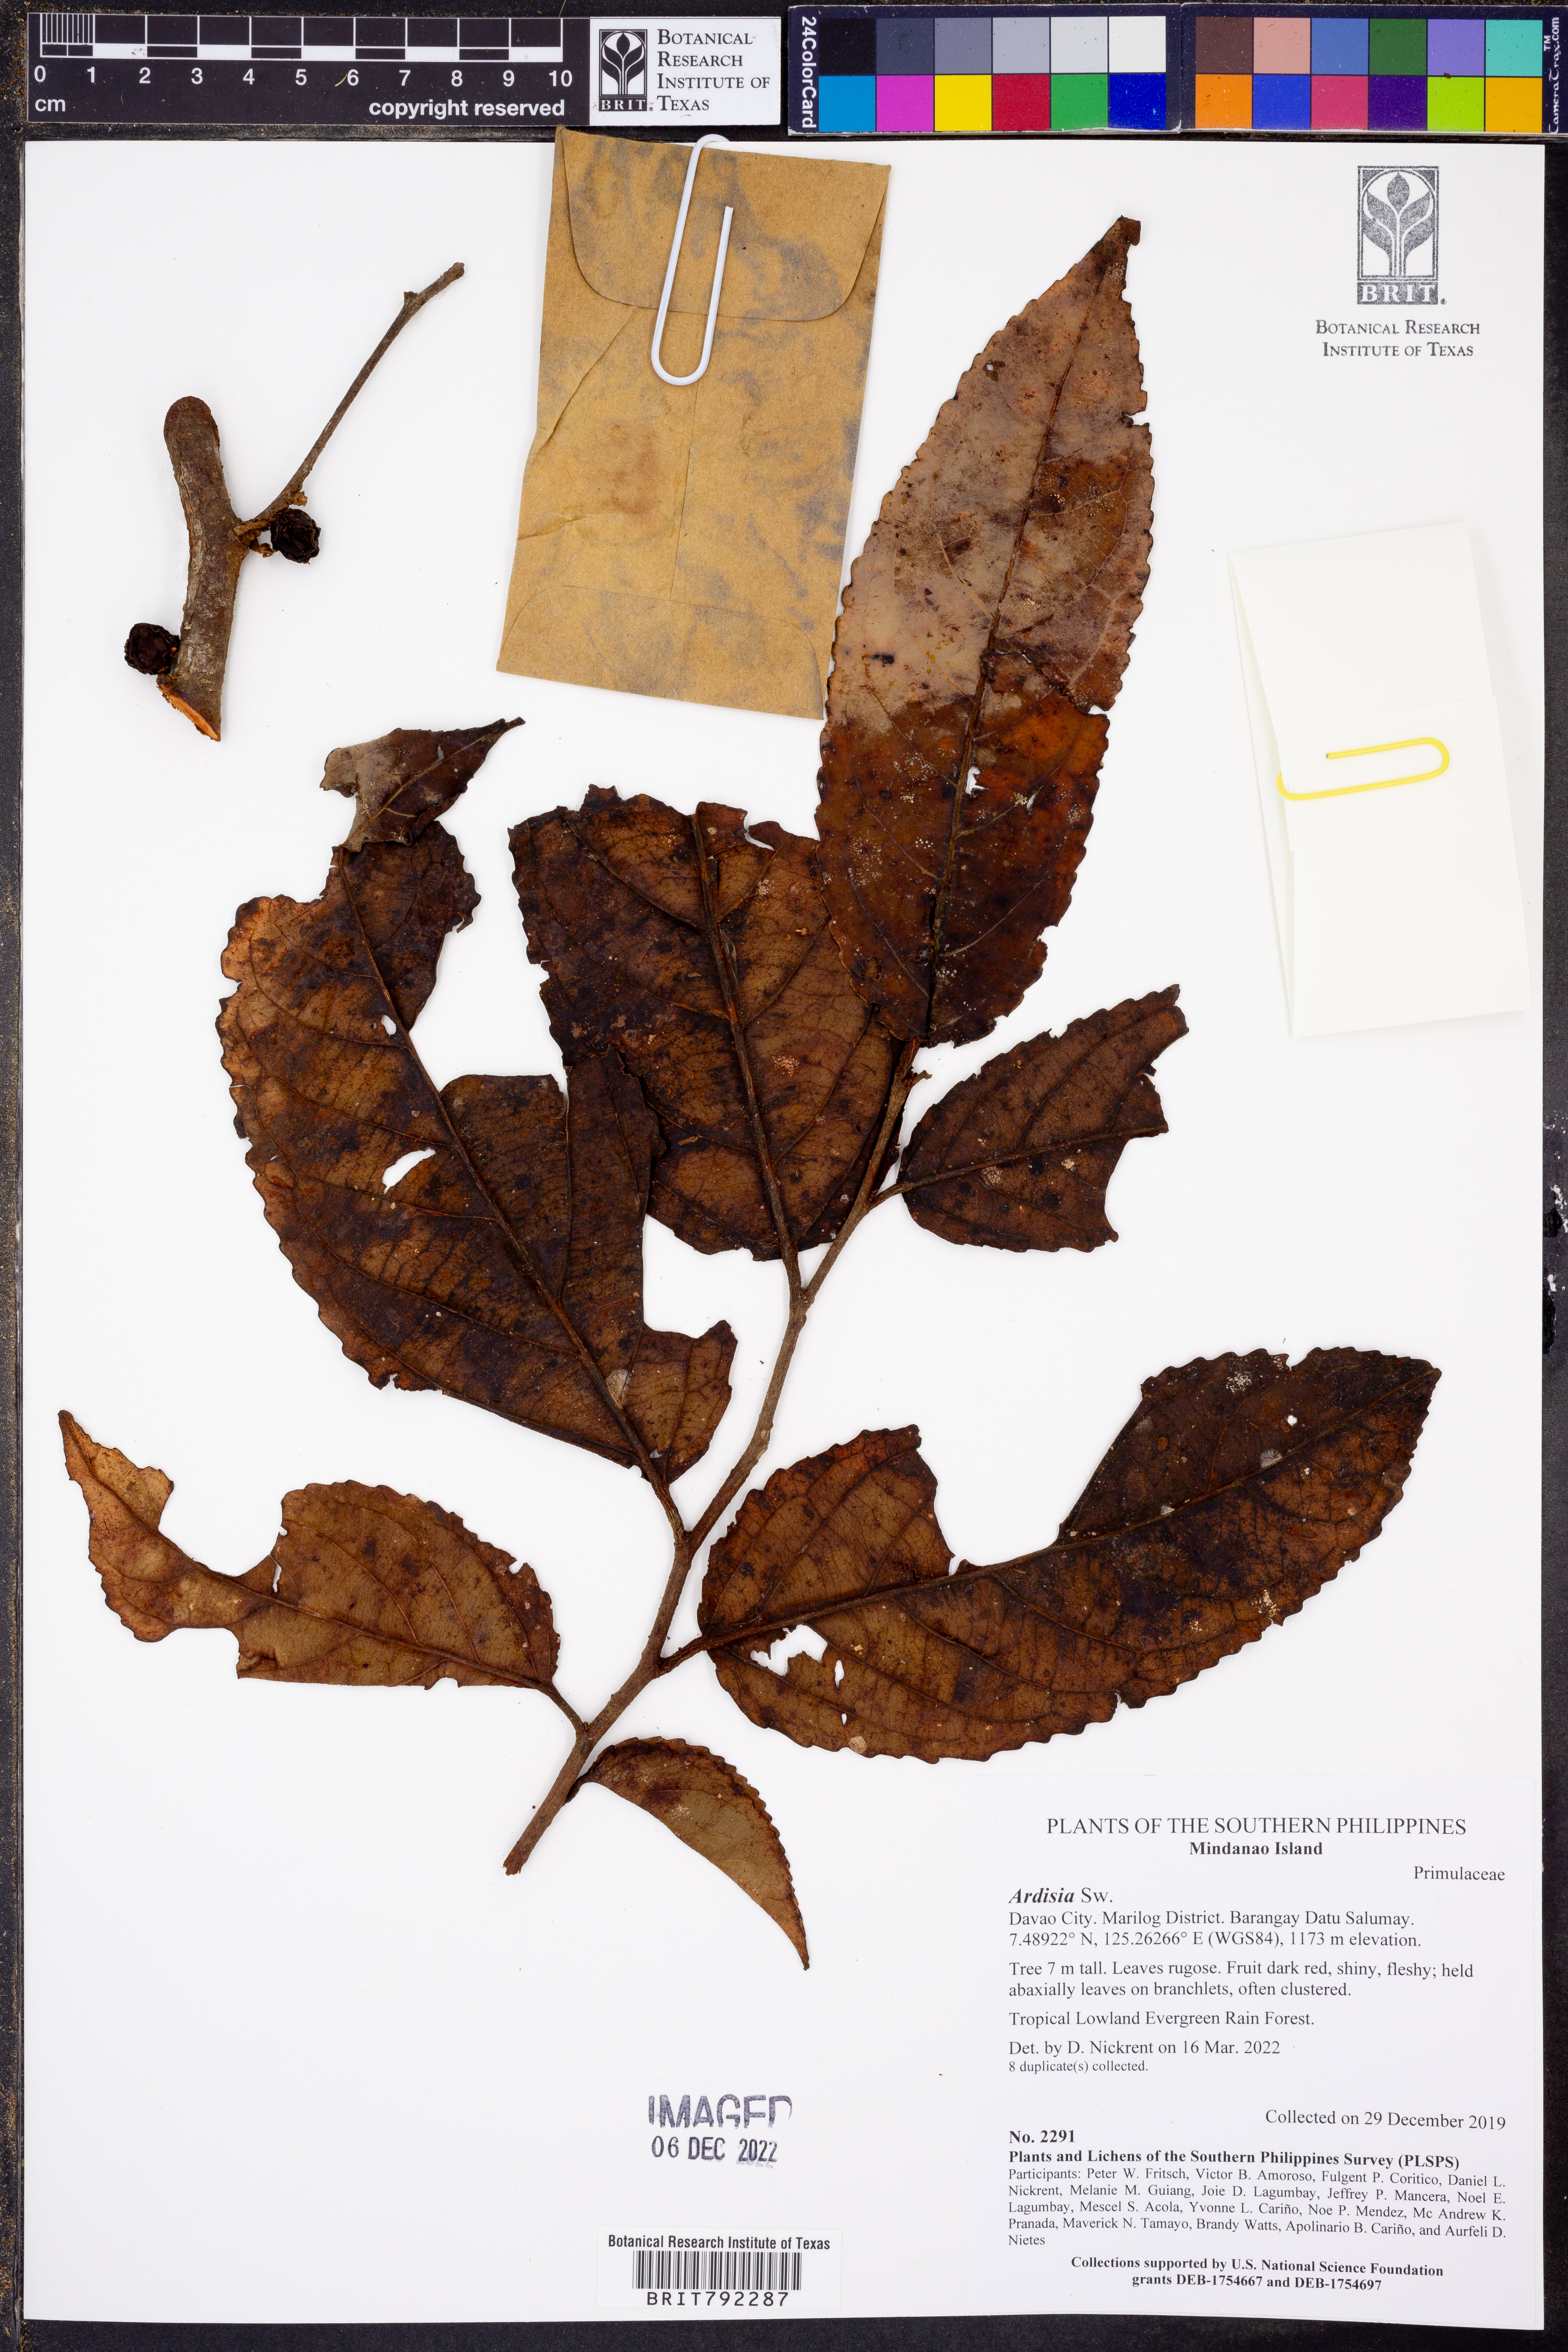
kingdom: Plantae
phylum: Tracheophyta
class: Magnoliopsida
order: Ericales
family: Primulaceae
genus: Ardisia
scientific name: Ardisia
